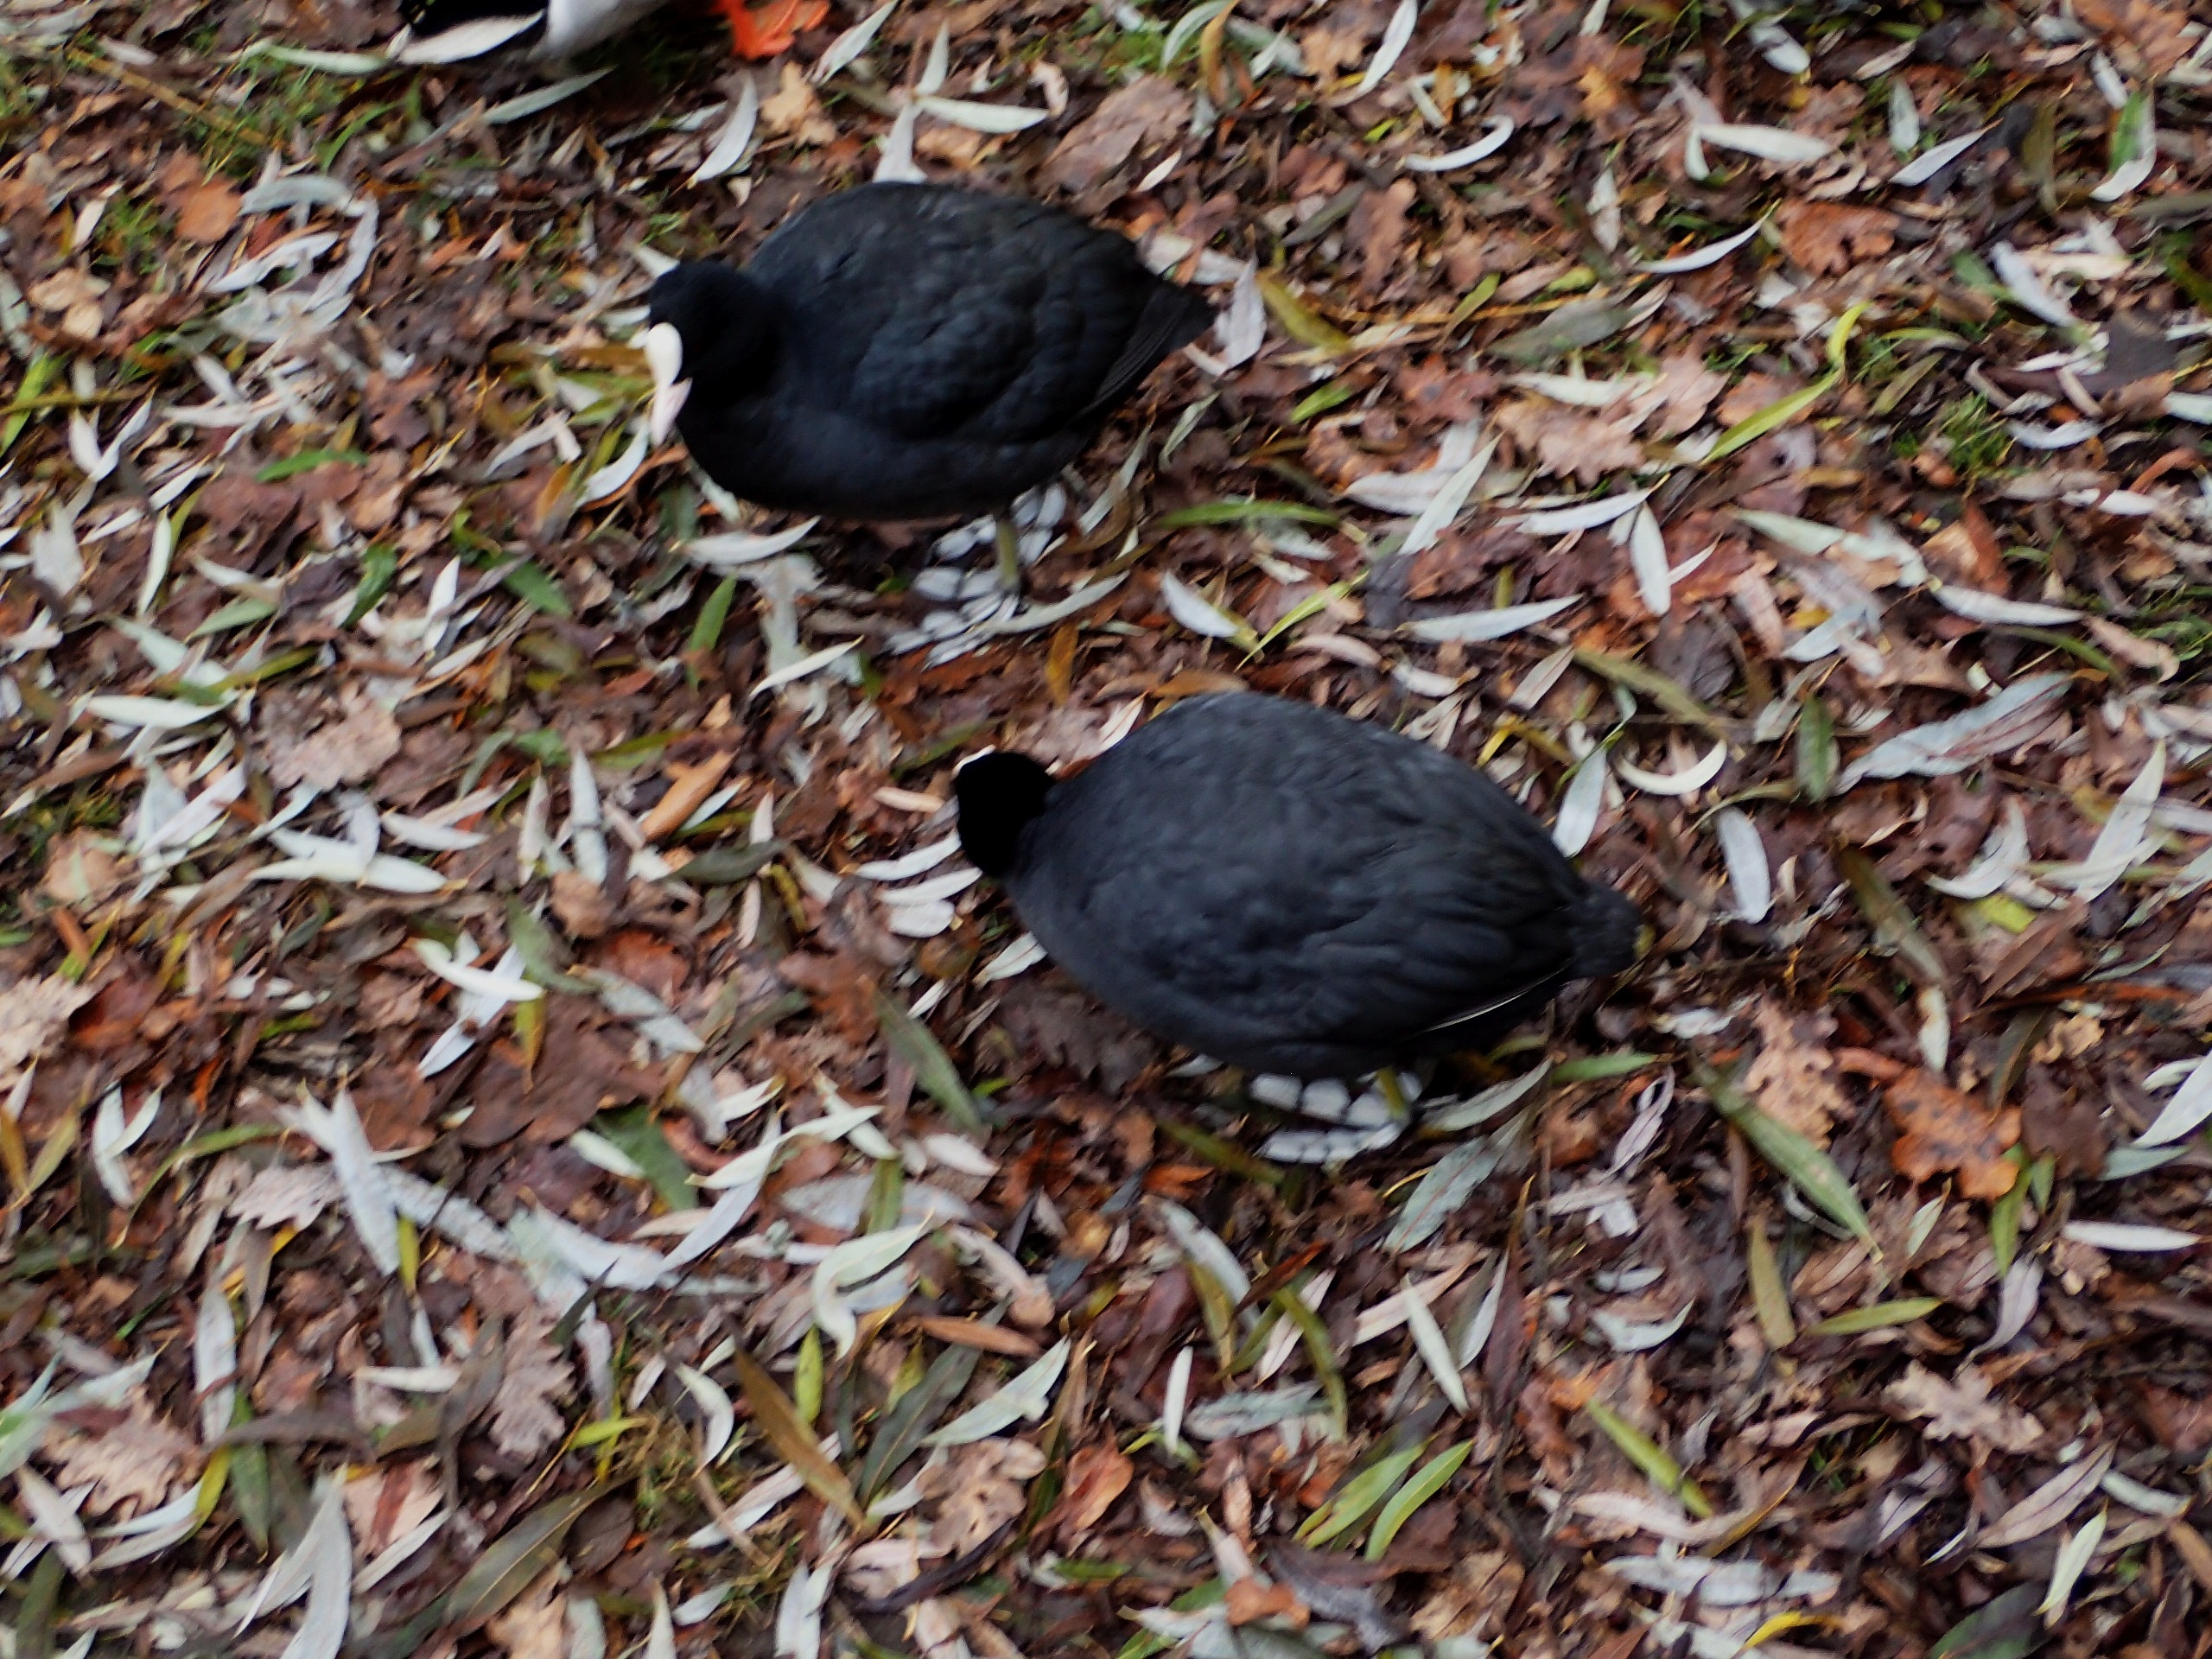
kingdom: Animalia
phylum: Chordata
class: Aves
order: Gruiformes
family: Rallidae
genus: Fulica
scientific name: Fulica atra
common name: Blishøne
